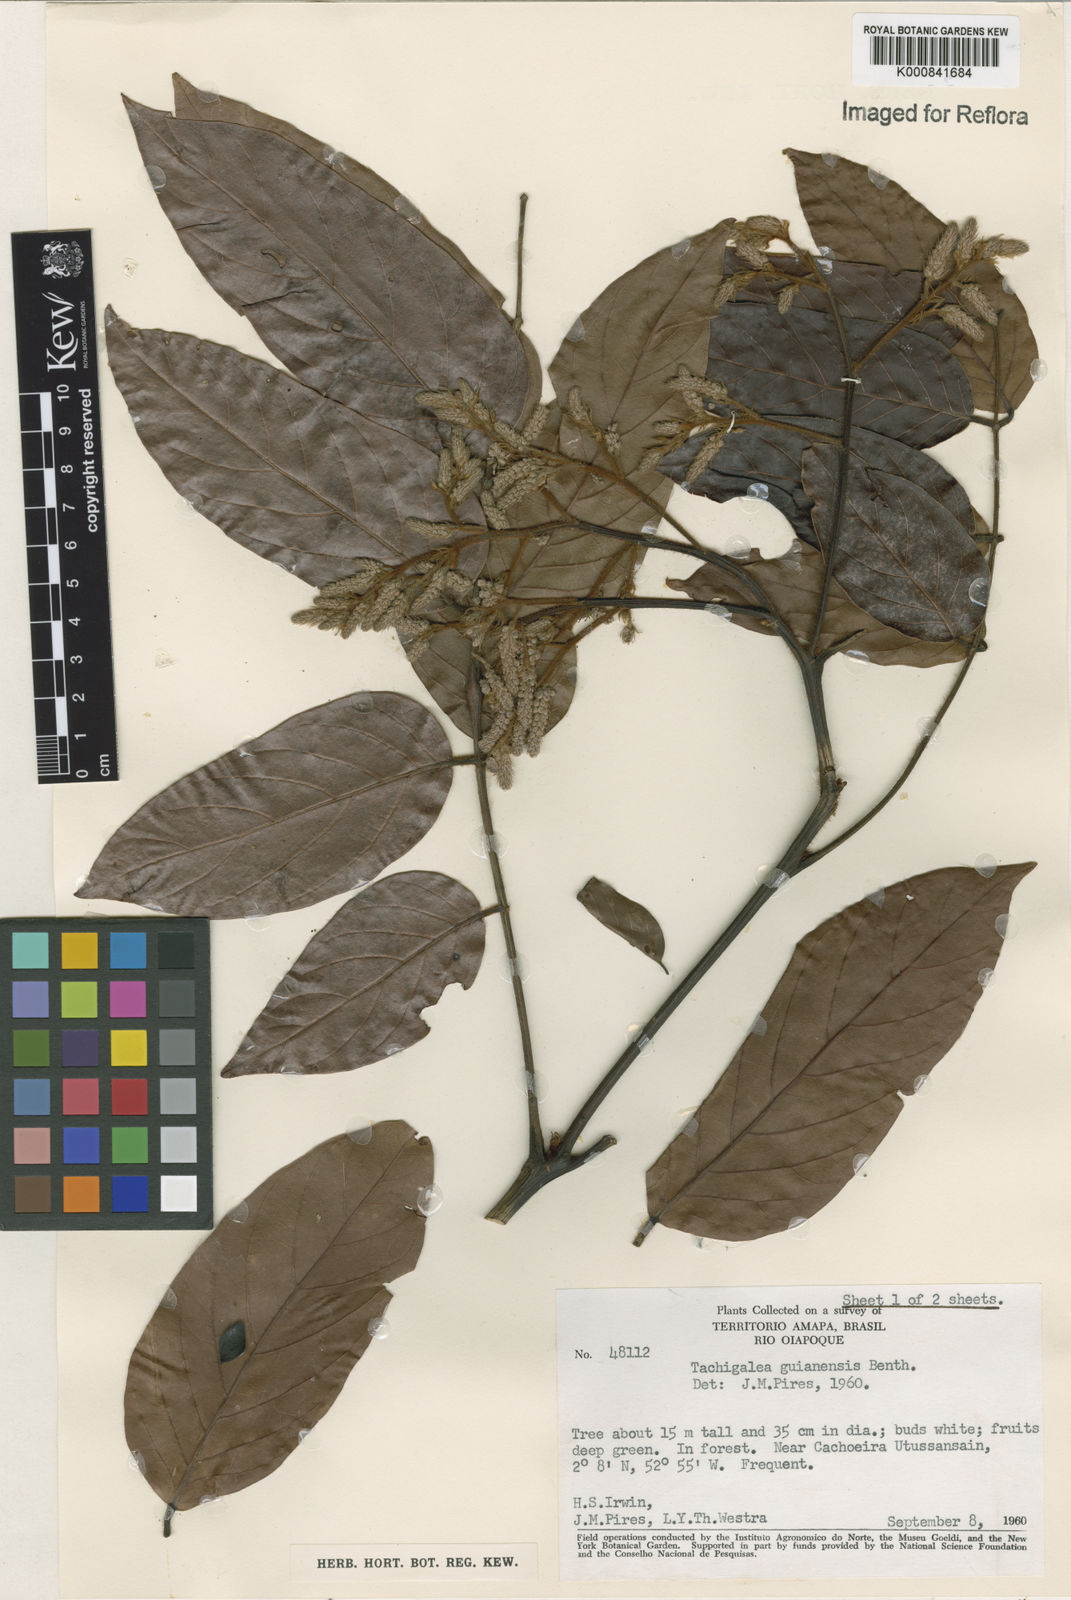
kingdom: Plantae
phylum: Tracheophyta
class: Magnoliopsida
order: Fabales
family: Fabaceae
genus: Tachigali
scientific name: Tachigali guianensis
